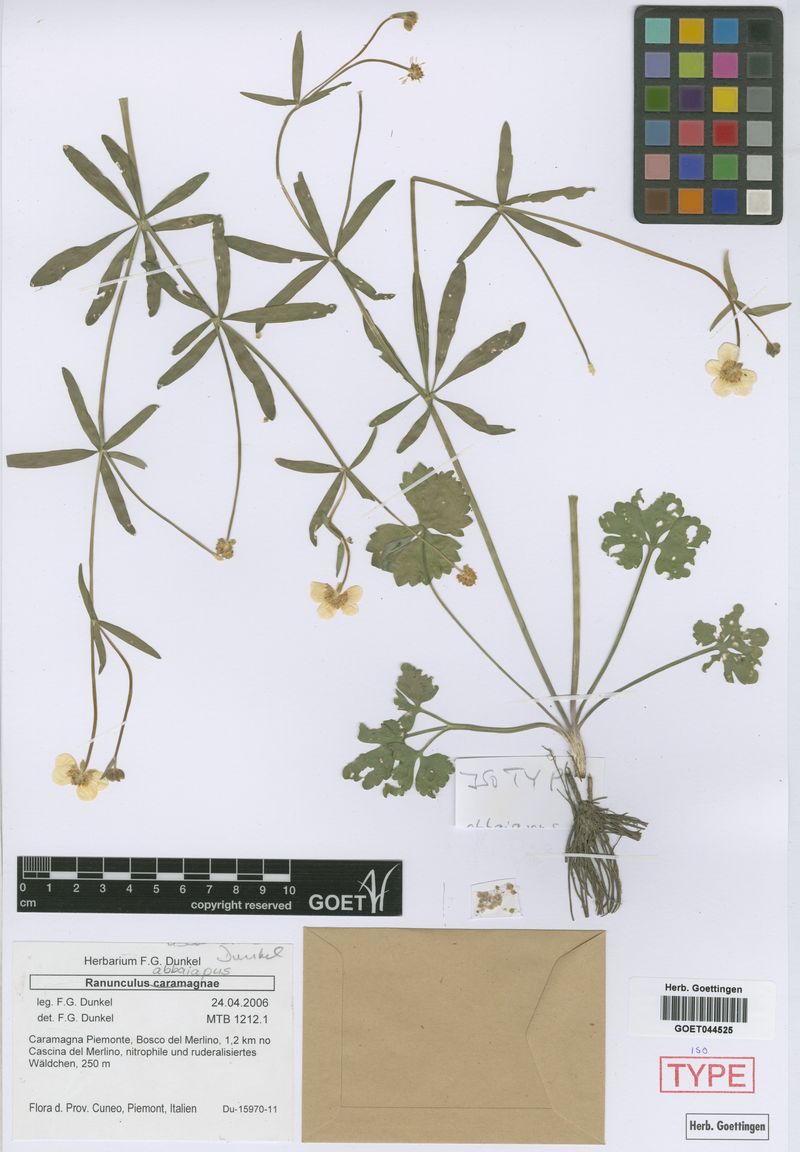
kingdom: Plantae
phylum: Tracheophyta
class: Magnoliopsida
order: Ranunculales
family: Ranunculaceae
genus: Ranunculus
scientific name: Ranunculus abbaianus
